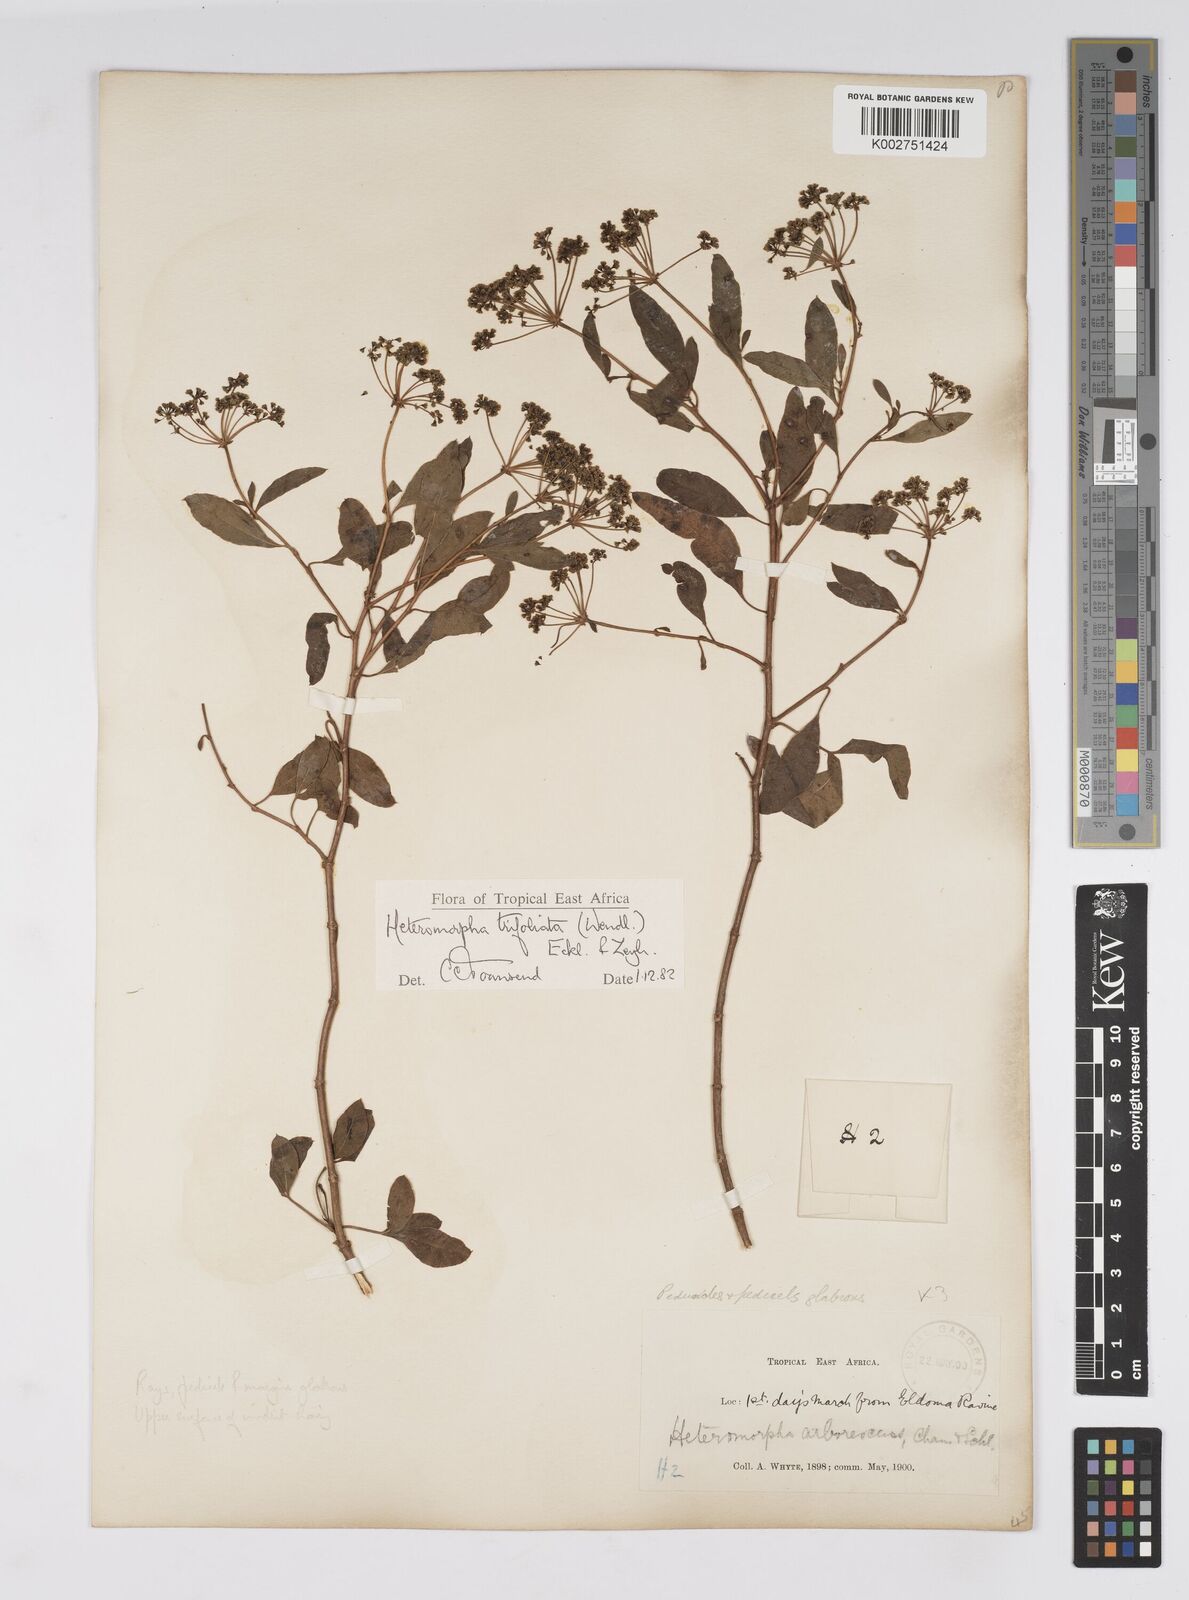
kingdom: Plantae
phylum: Tracheophyta
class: Magnoliopsida
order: Apiales
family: Apiaceae
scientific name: Apiaceae
